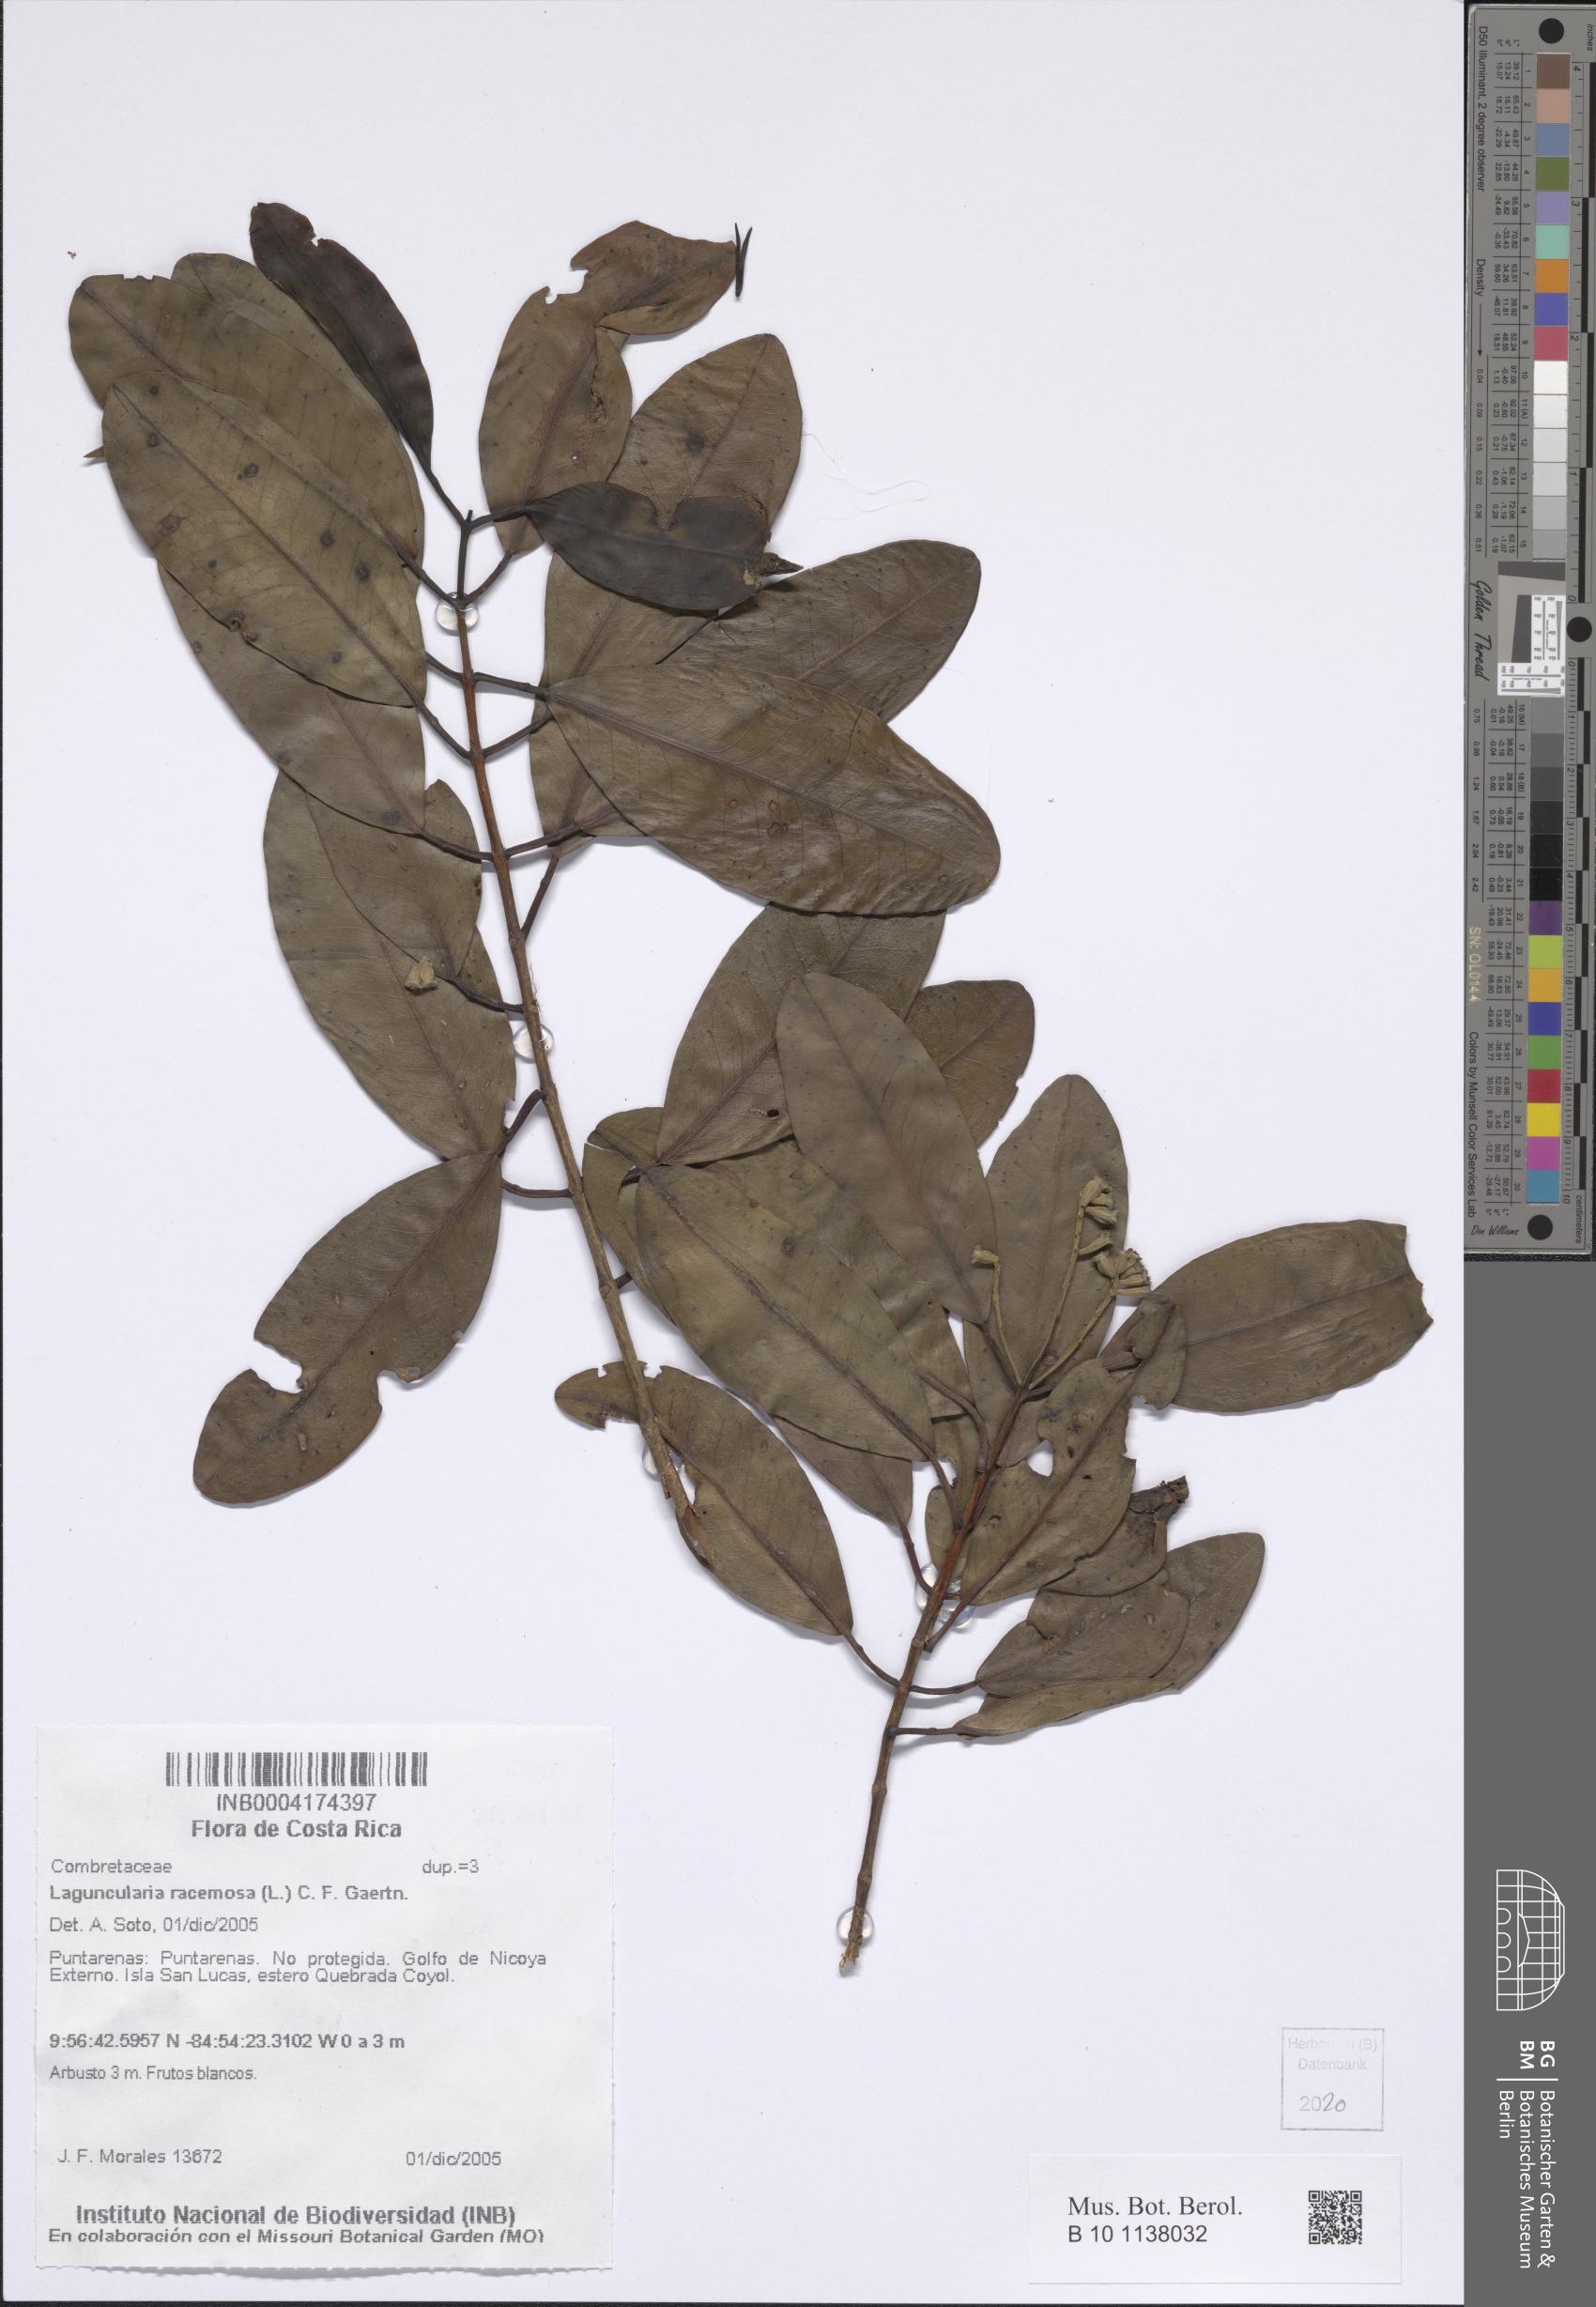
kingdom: Plantae
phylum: Tracheophyta
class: Magnoliopsida
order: Myrtales
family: Combretaceae
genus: Laguncularia
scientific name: Laguncularia racemosa
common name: White mangrove
